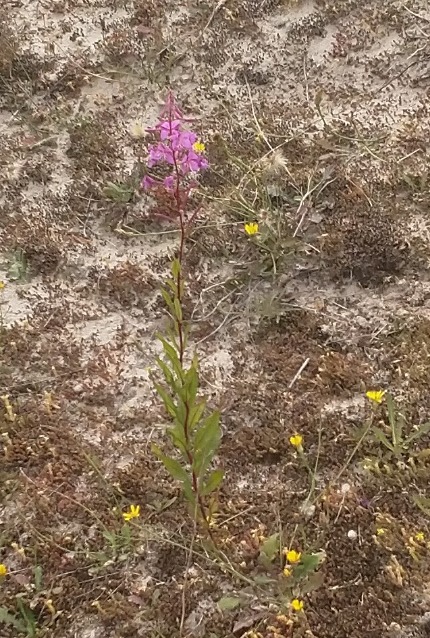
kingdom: Plantae
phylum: Tracheophyta
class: Magnoliopsida
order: Myrtales
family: Onagraceae
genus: Chamaenerion
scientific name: Chamaenerion angustifolium
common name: Gederams
